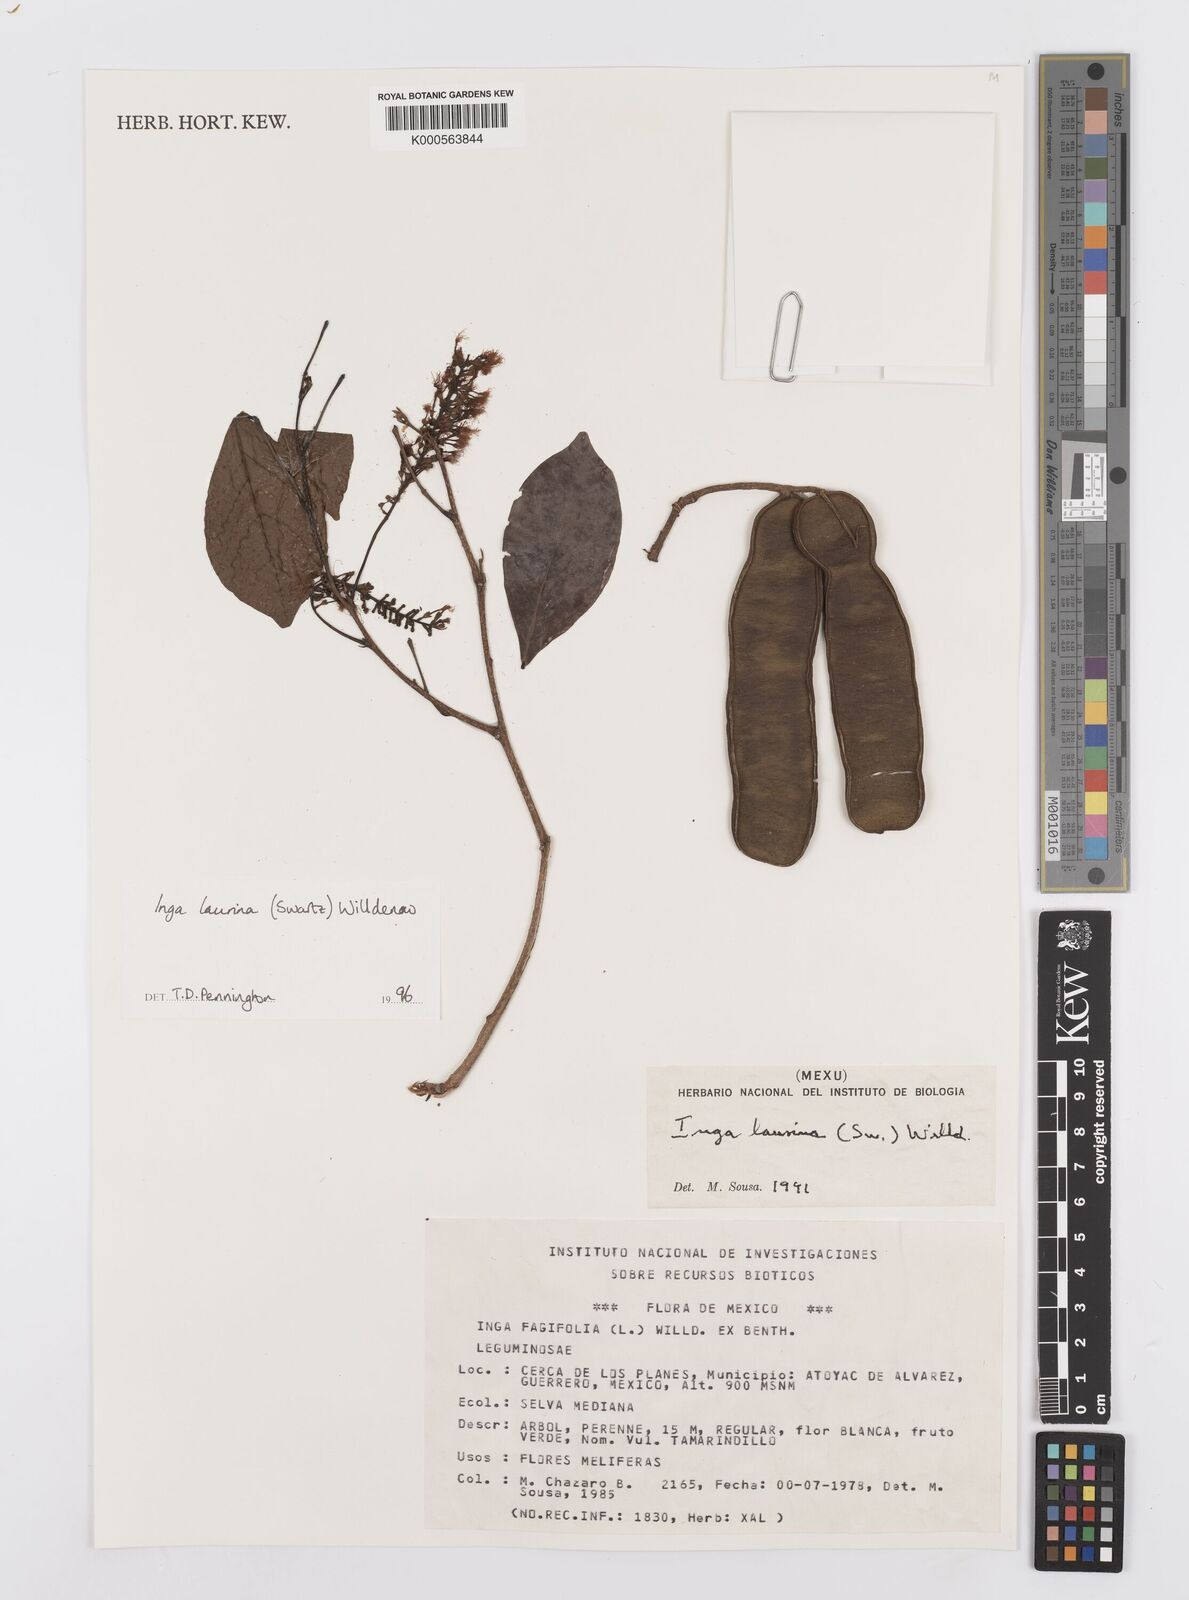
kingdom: Plantae
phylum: Tracheophyta
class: Magnoliopsida
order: Fabales
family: Fabaceae
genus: Inga
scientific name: Inga laurina
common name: Red wood
